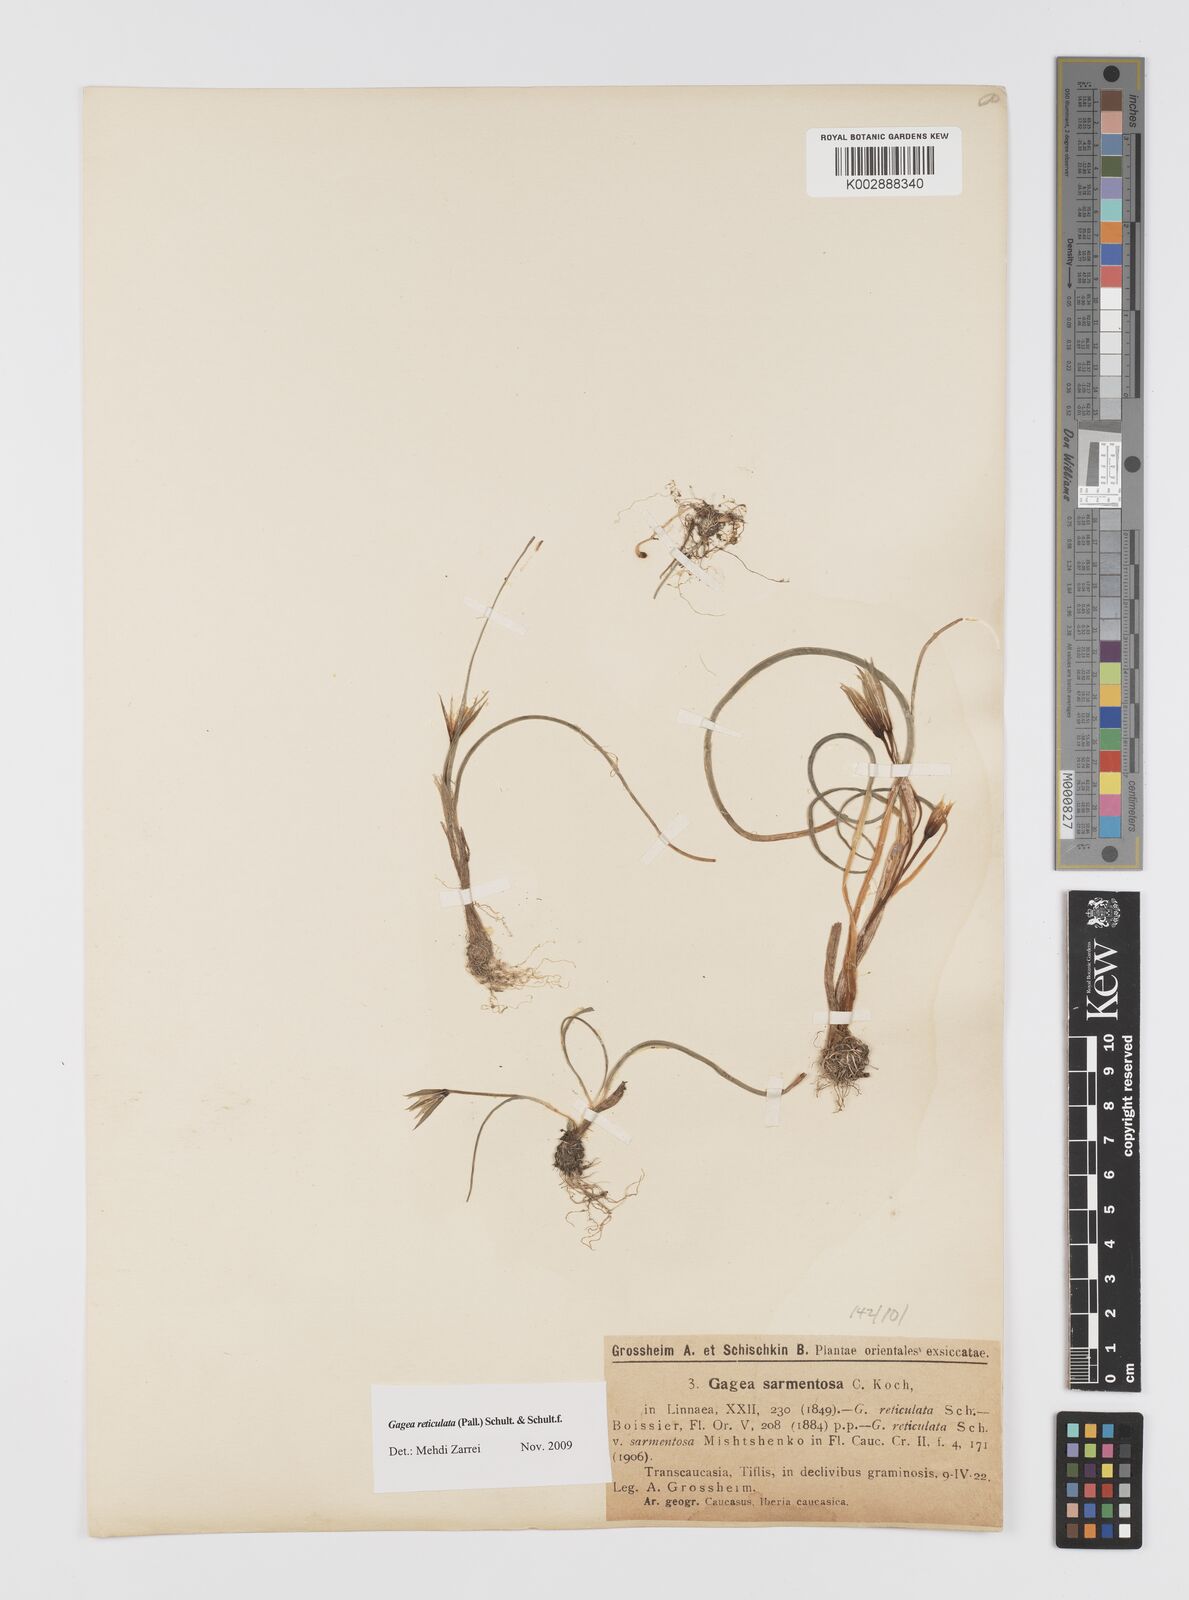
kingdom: Plantae
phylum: Tracheophyta
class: Liliopsida
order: Liliales
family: Liliaceae
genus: Gagea
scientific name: Gagea reticulata
